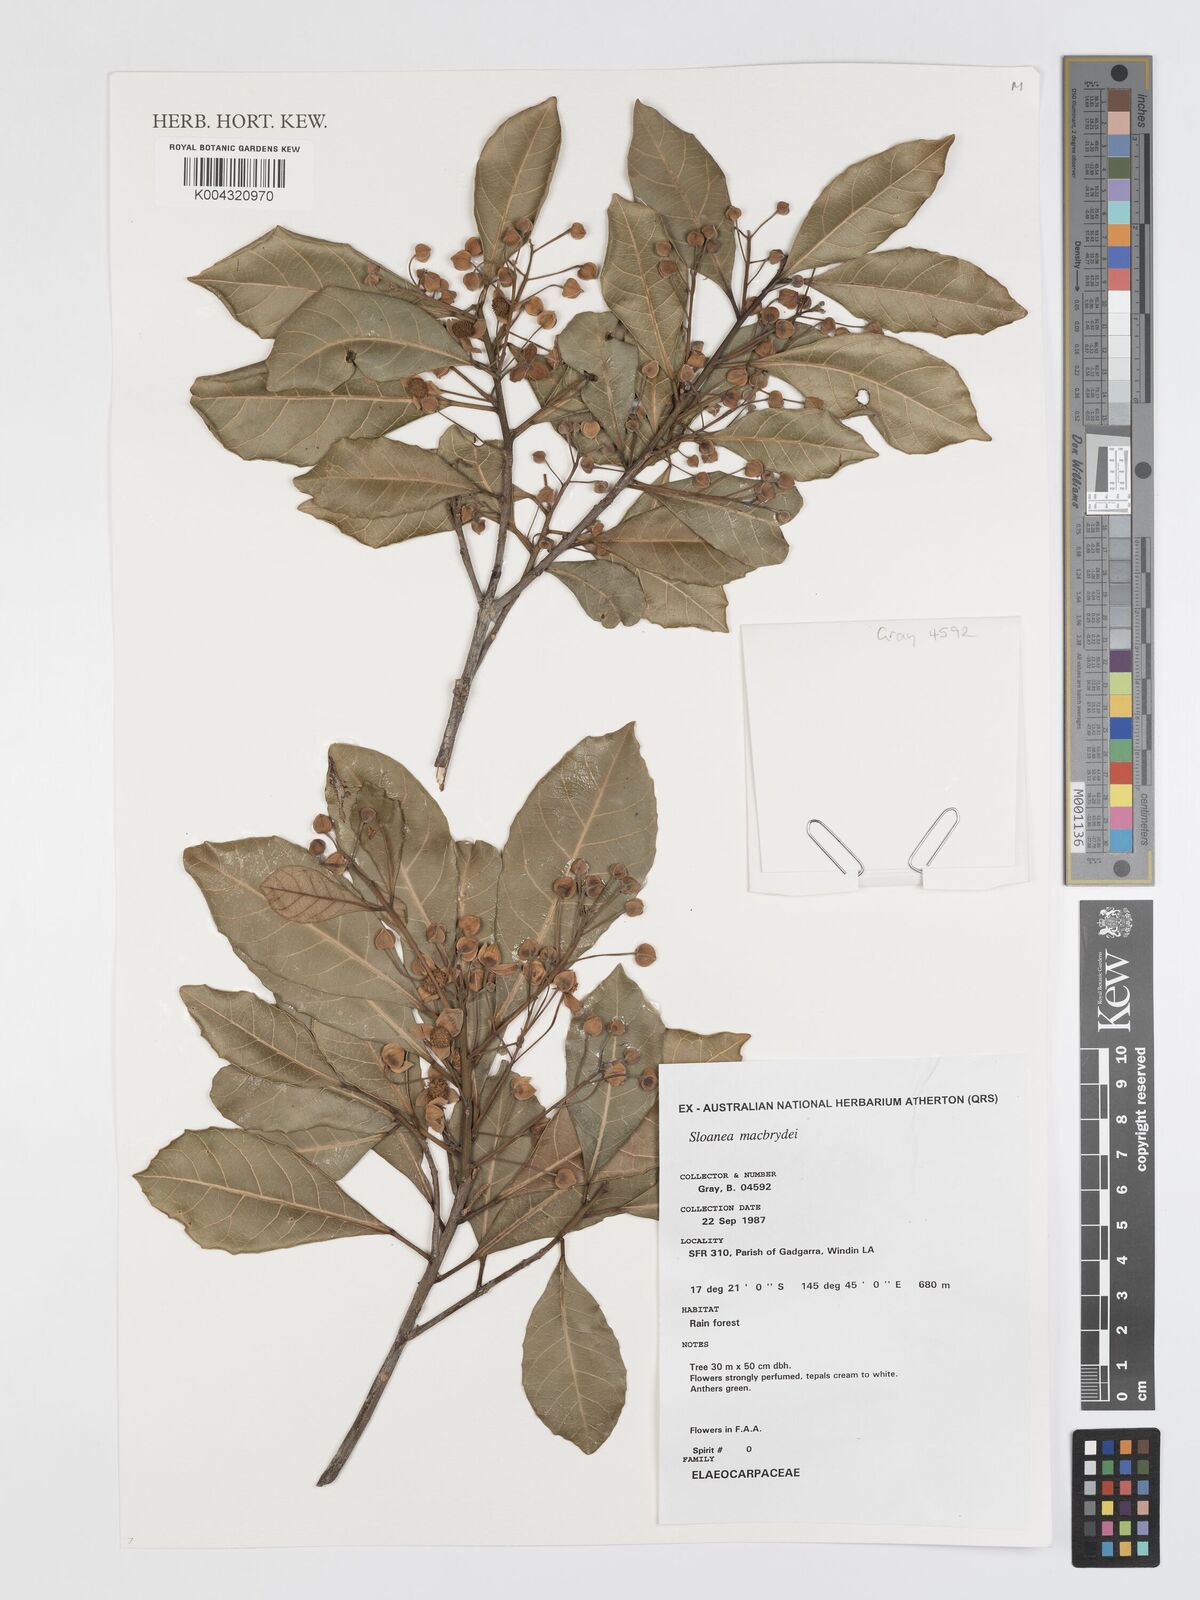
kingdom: Plantae
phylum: Tracheophyta
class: Magnoliopsida
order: Oxalidales
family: Elaeocarpaceae
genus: Sloanea
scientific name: Sloanea macbrydei
